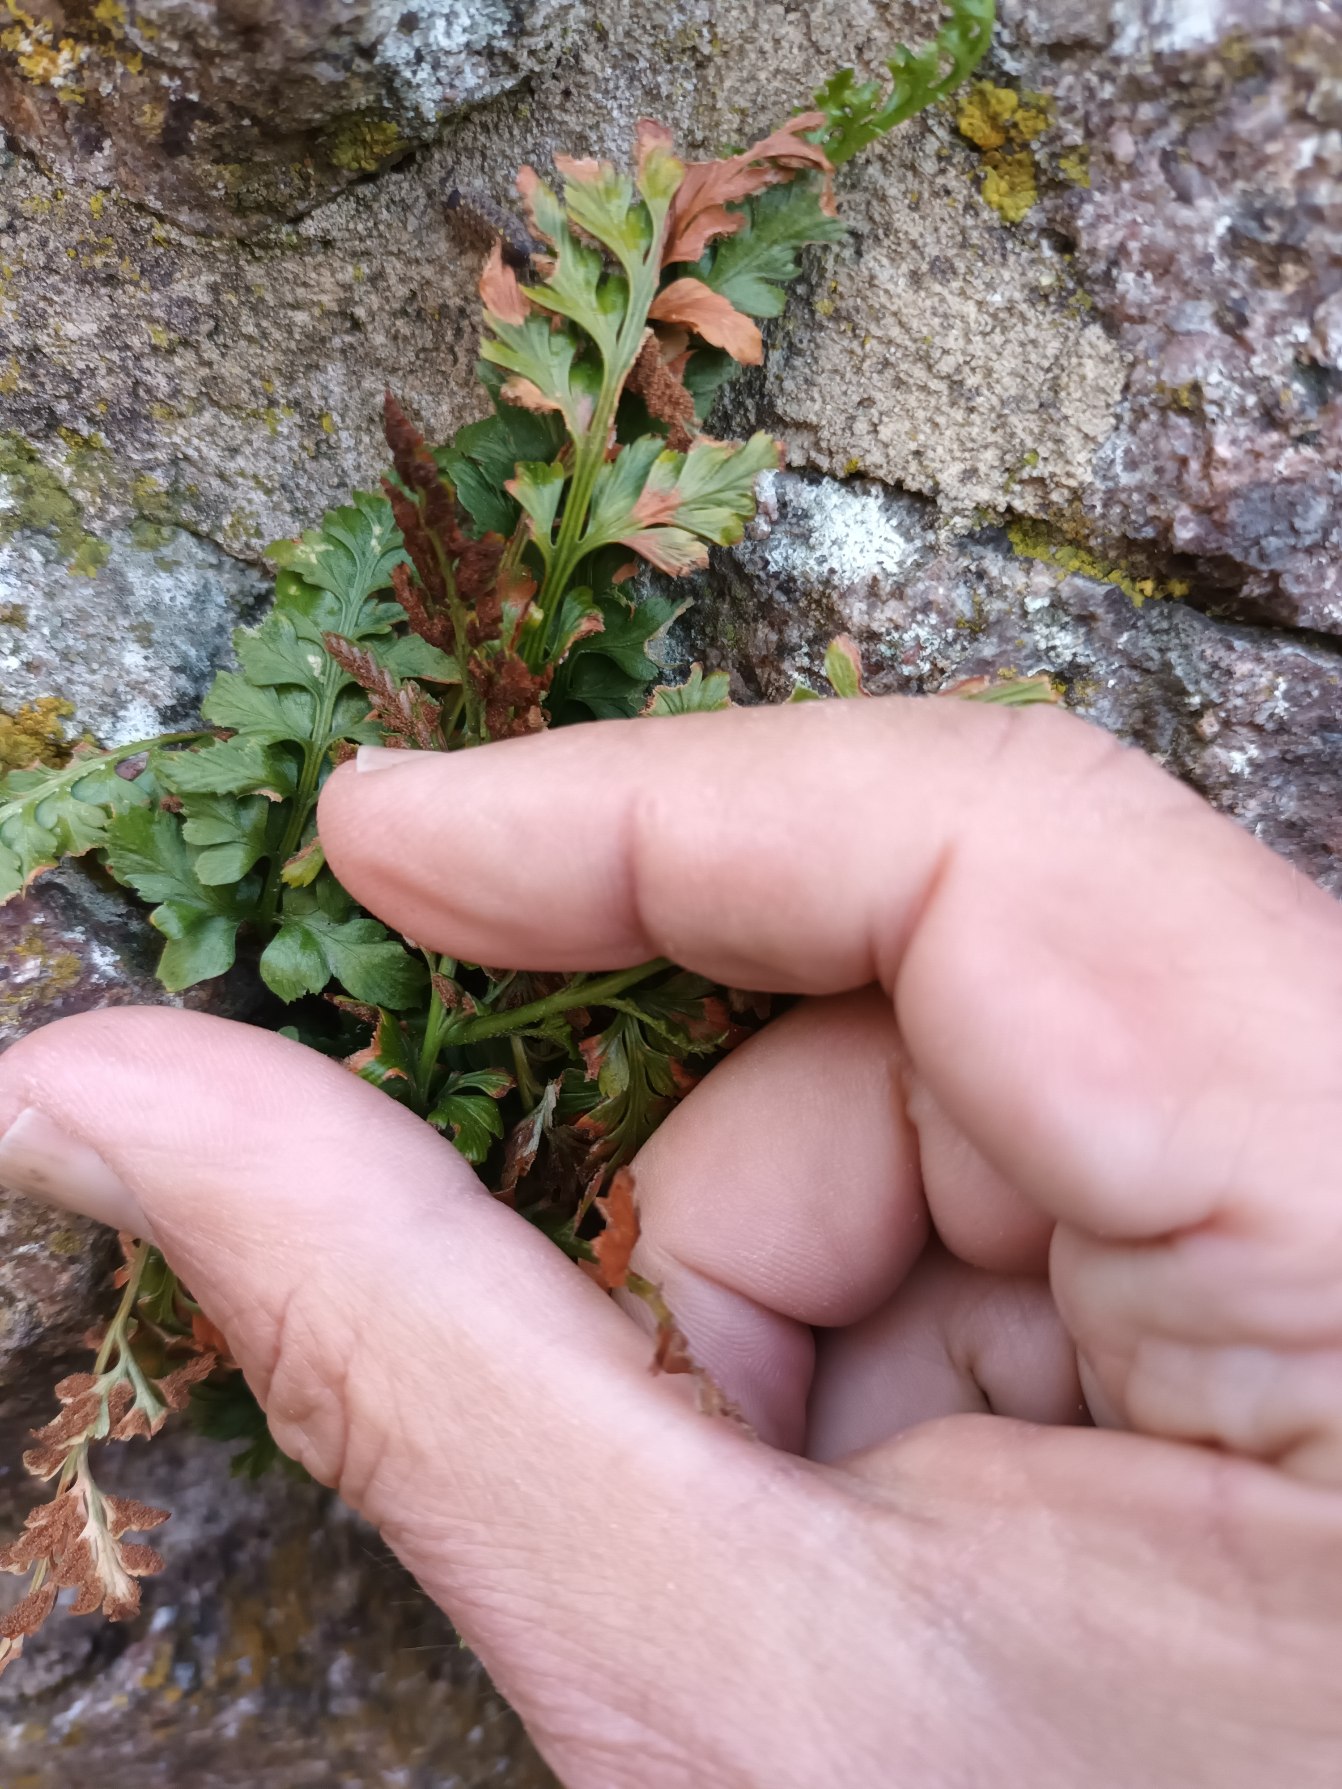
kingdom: Plantae
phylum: Tracheophyta
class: Polypodiopsida
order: Polypodiales
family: Aspleniaceae
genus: Asplenium
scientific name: Asplenium adiantum-nigrum
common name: Sort radeløv
